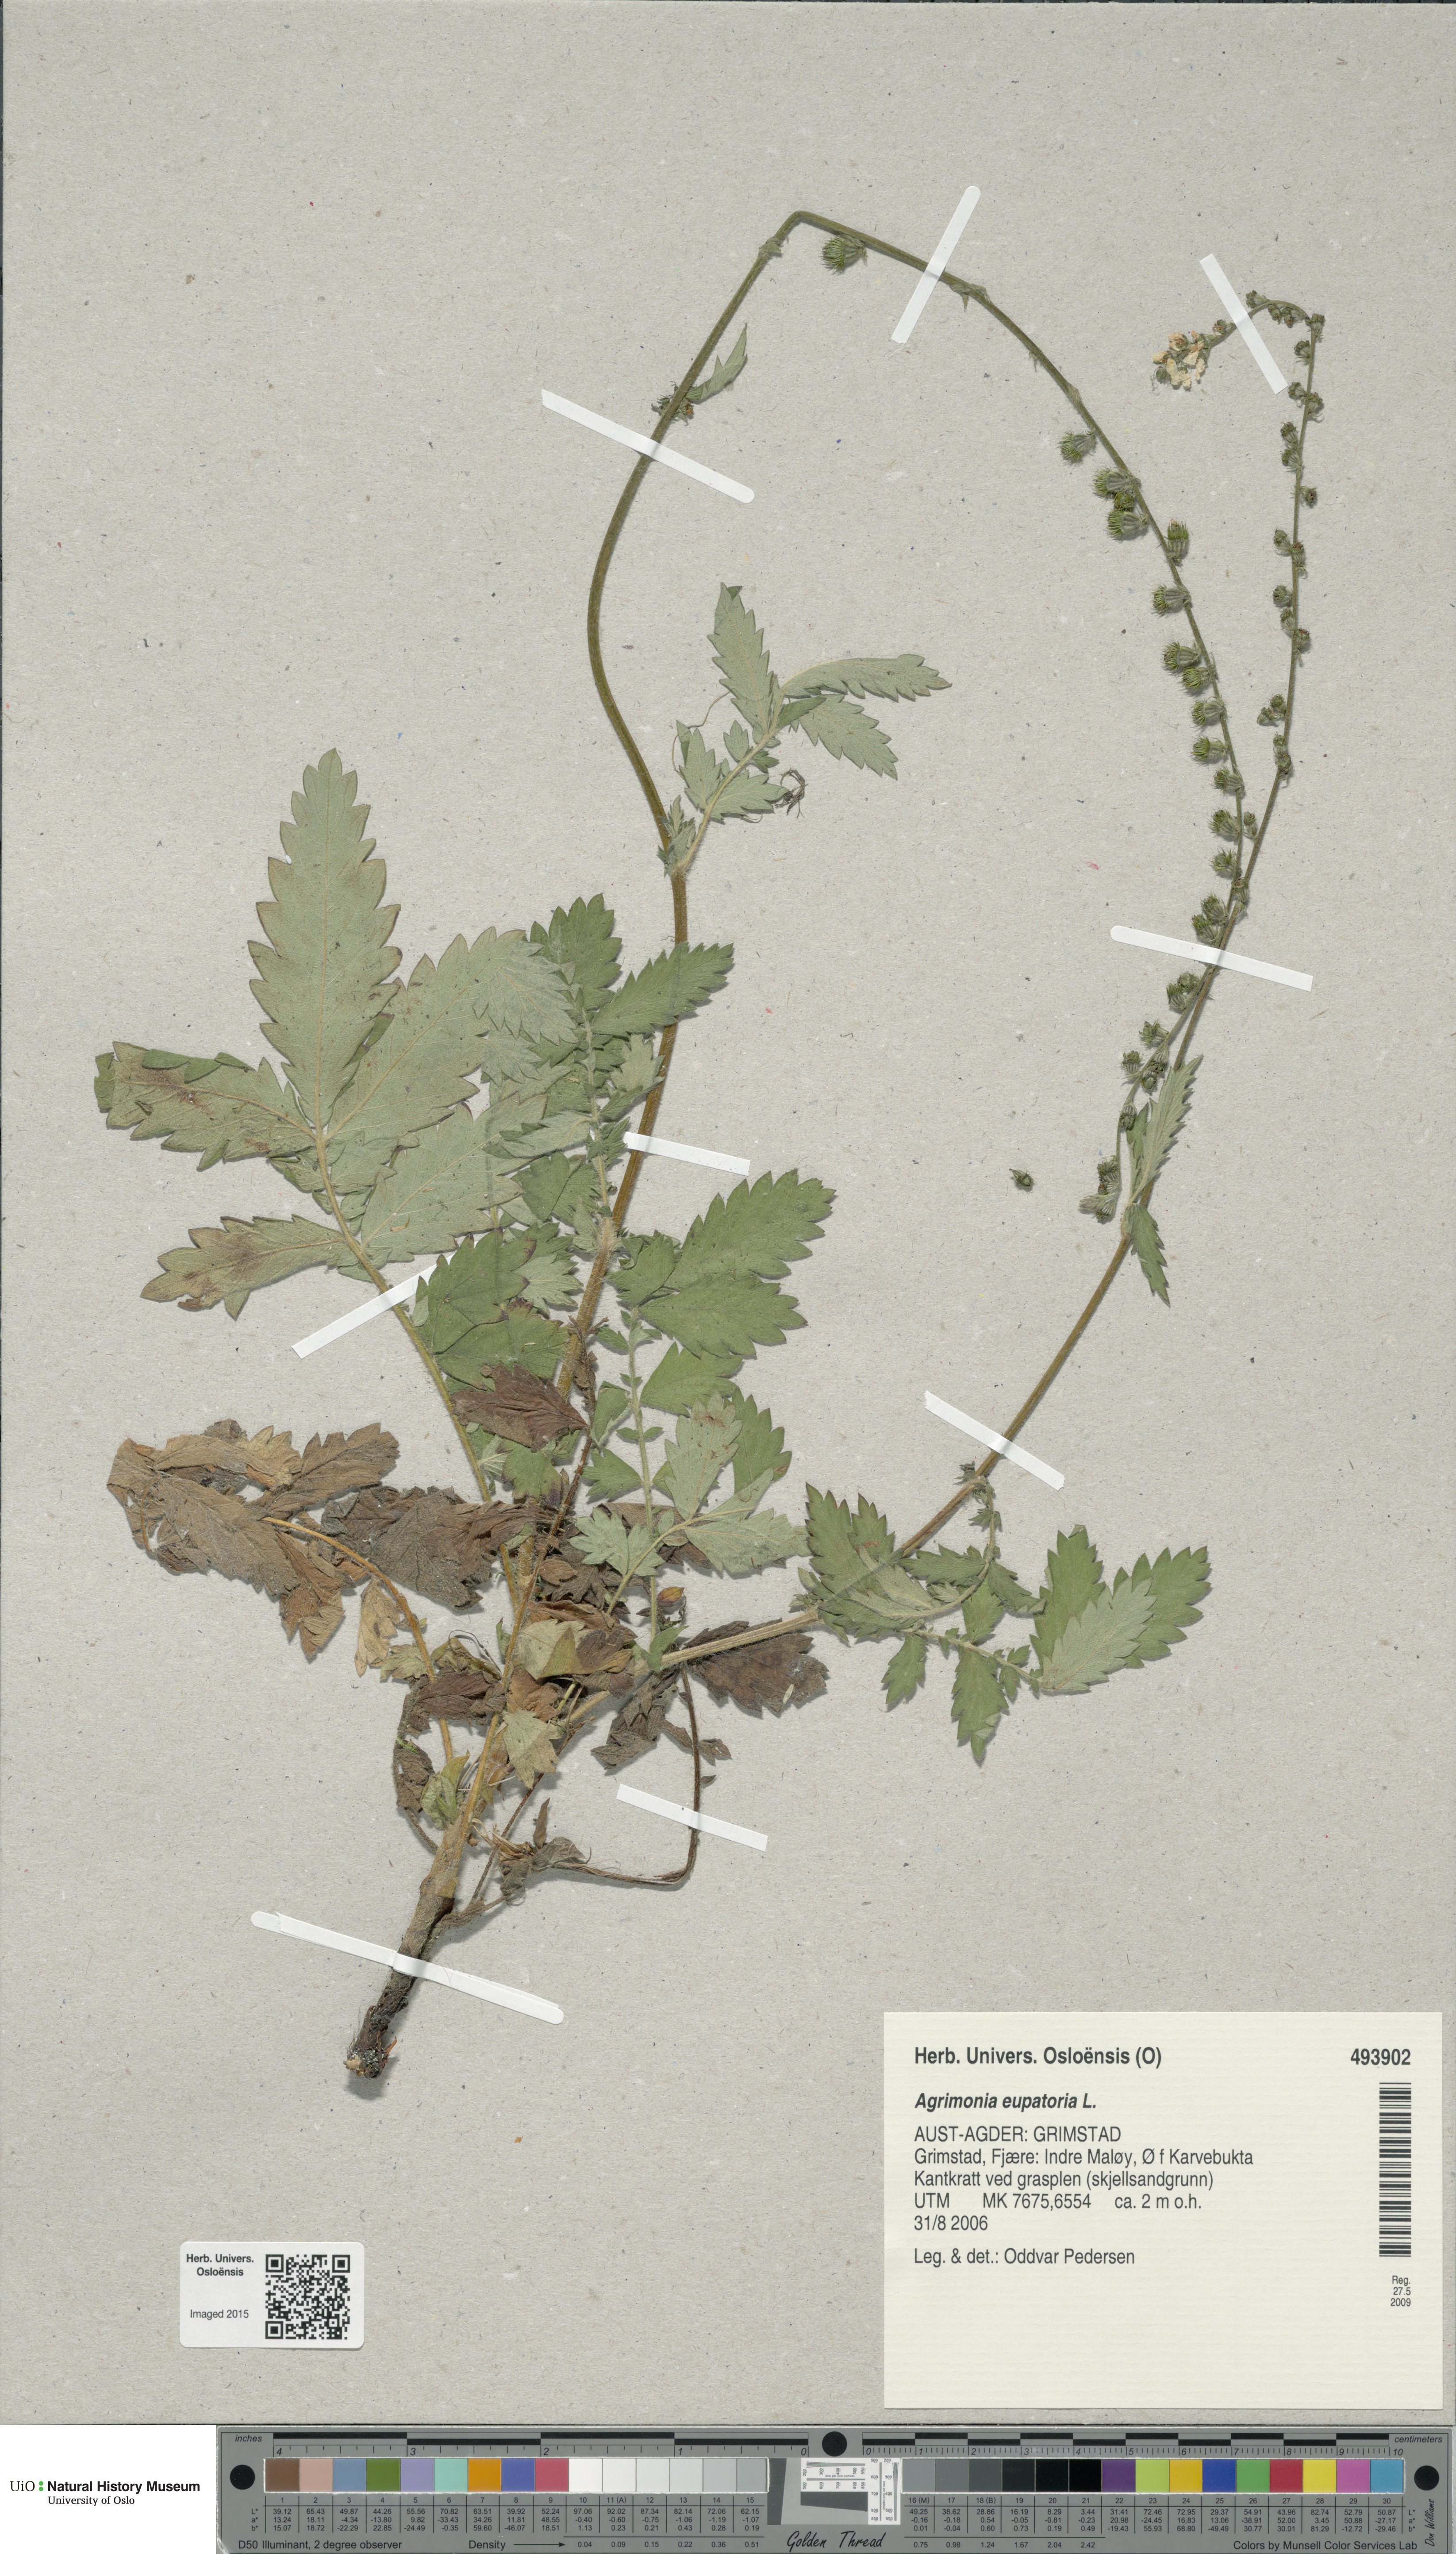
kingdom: Plantae
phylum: Tracheophyta
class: Magnoliopsida
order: Rosales
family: Rosaceae
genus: Agrimonia
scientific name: Agrimonia eupatoria
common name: Agrimony
